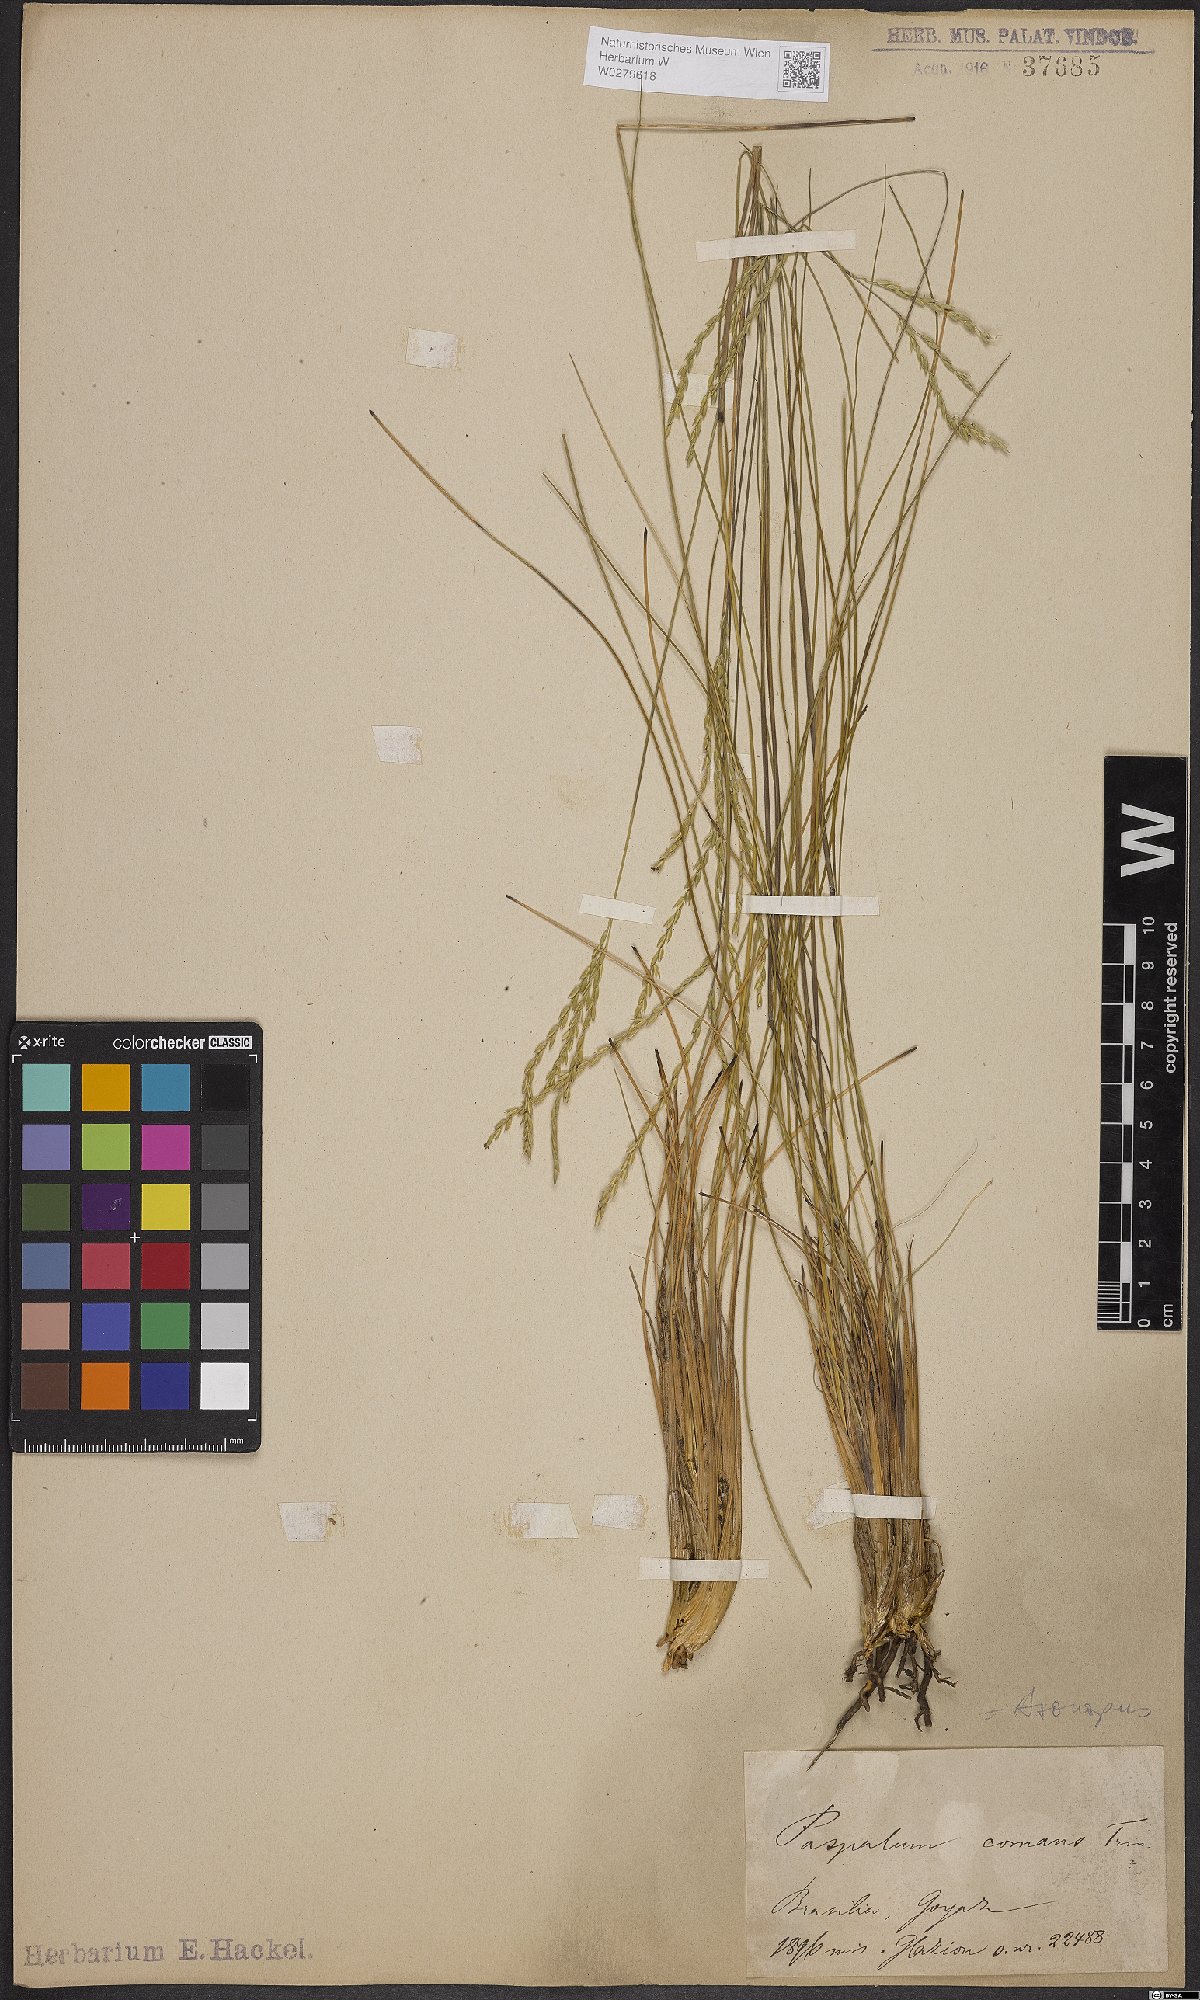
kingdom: Plantae
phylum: Tracheophyta
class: Liliopsida
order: Poales
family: Poaceae
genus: Axonopus
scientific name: Axonopus comans
